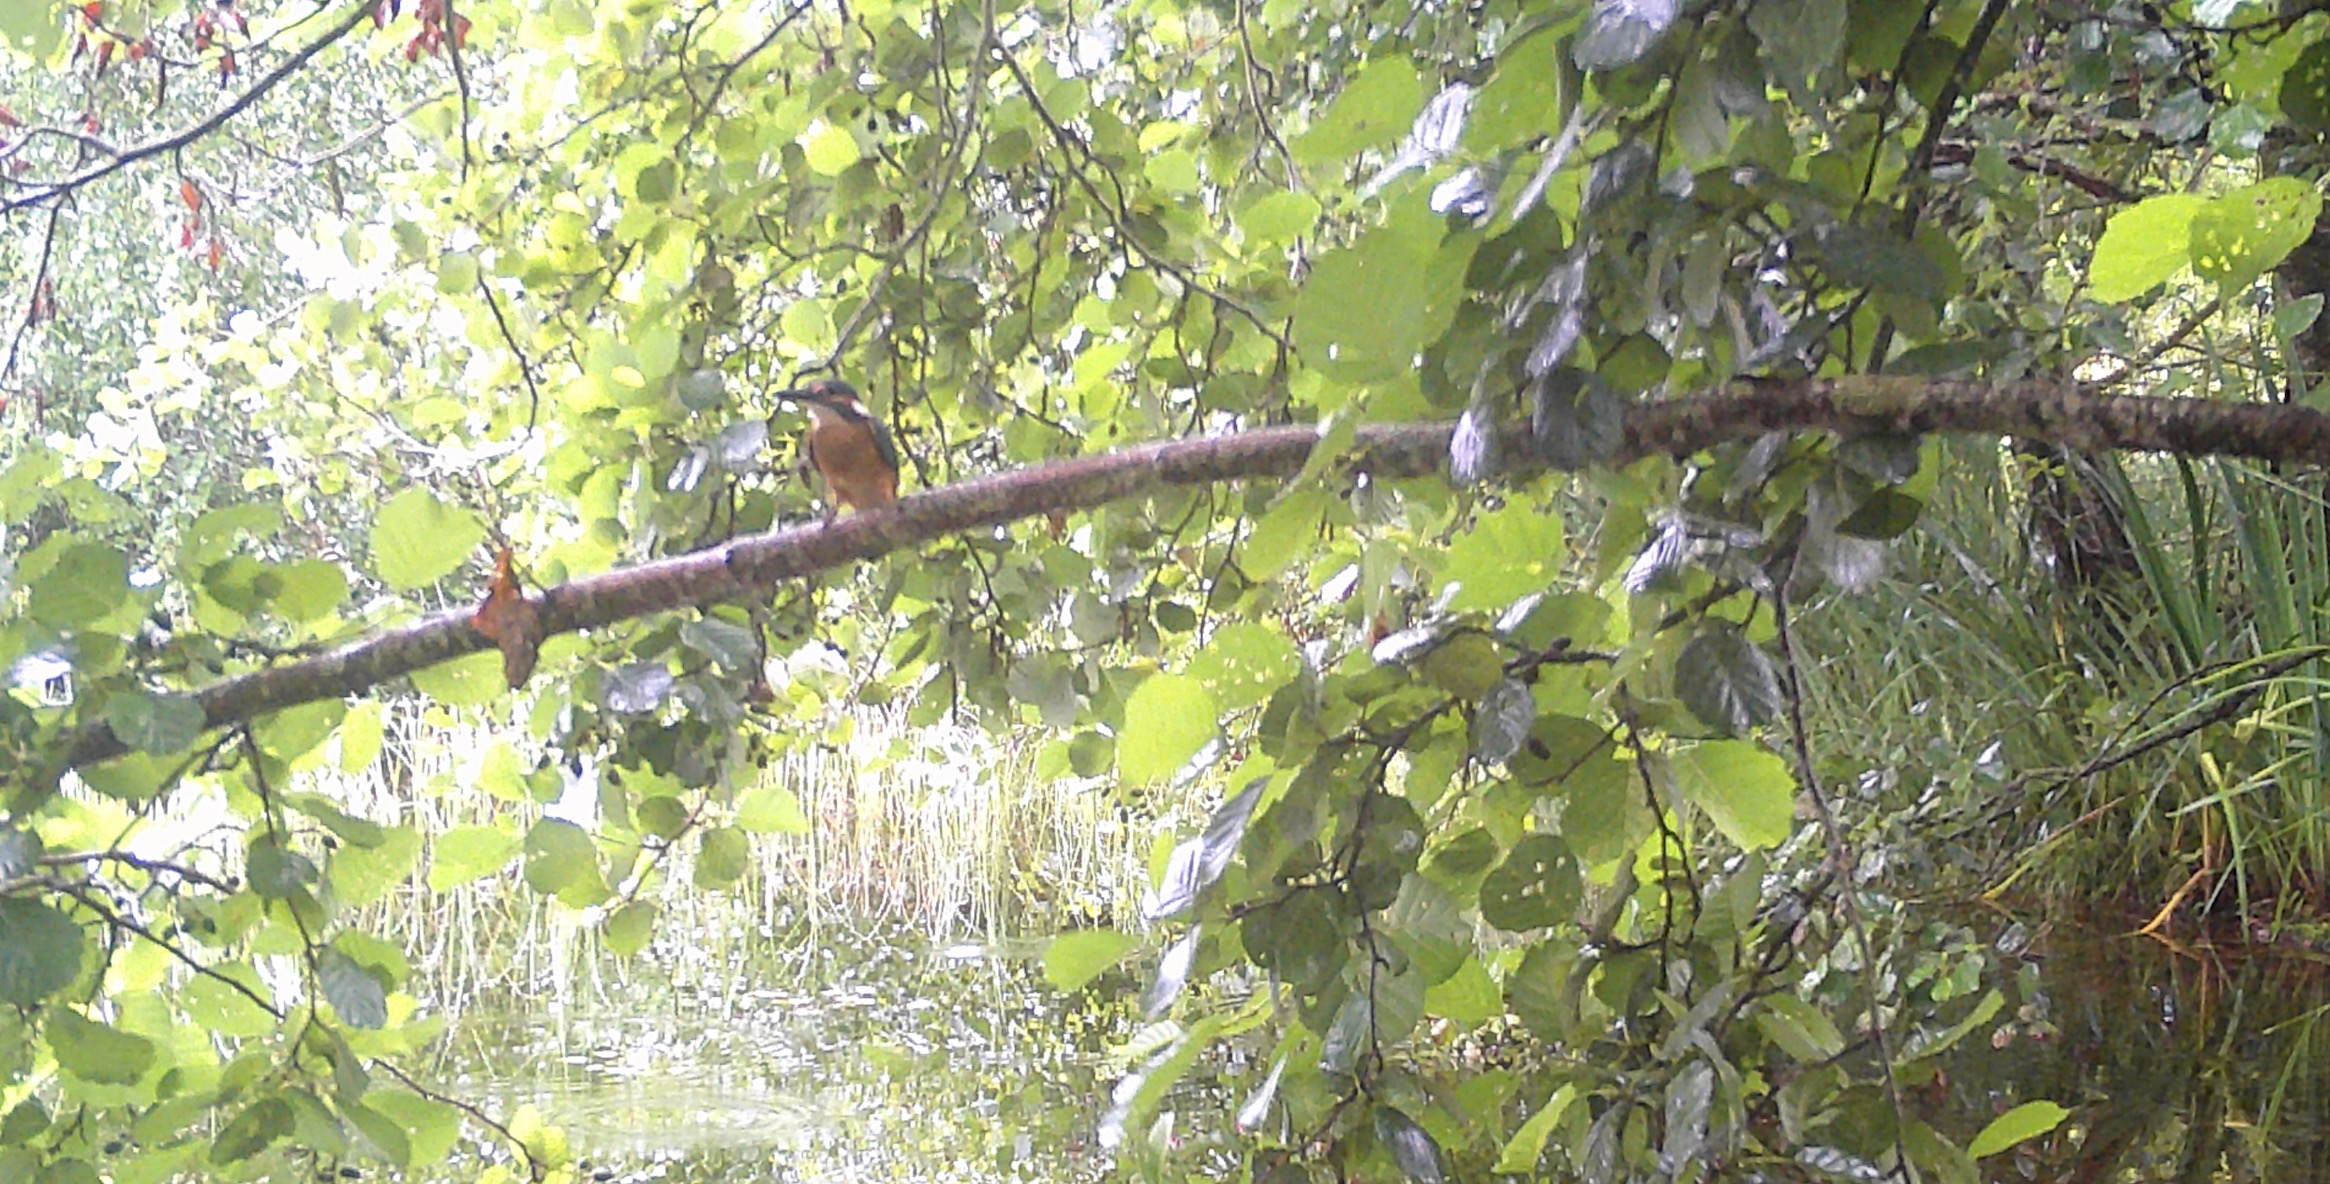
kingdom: Animalia
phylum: Chordata
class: Aves
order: Coraciiformes
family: Alcedinidae
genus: Alcedo
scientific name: Alcedo atthis
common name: Isfugl
